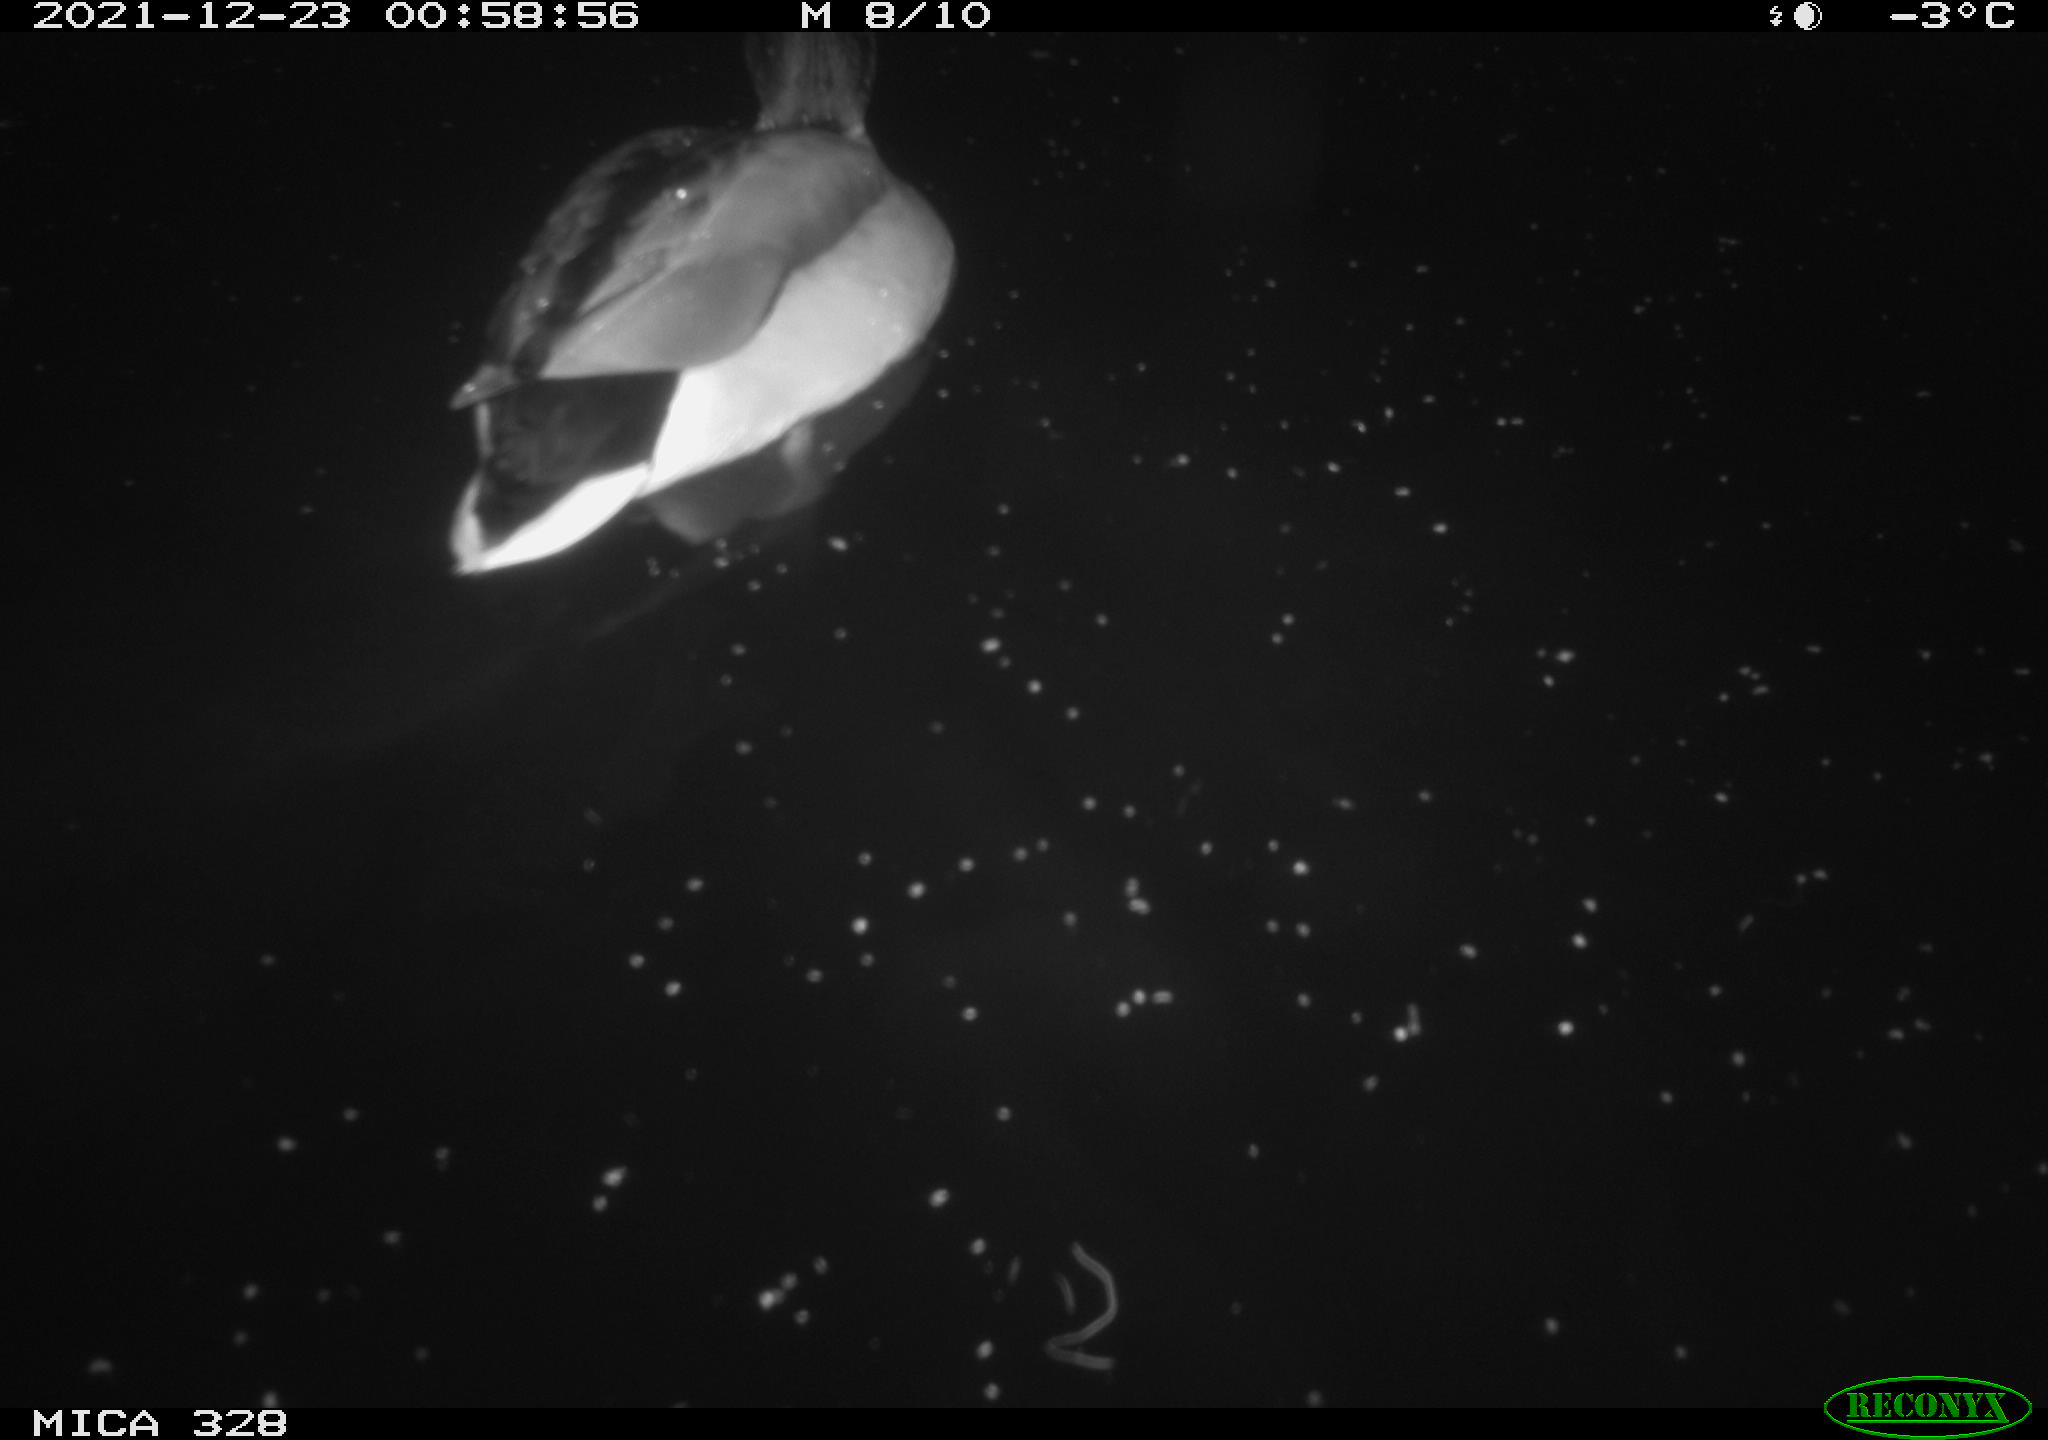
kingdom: Animalia
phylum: Chordata
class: Aves
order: Anseriformes
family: Anatidae
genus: Anas
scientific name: Anas platyrhynchos
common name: Mallard
